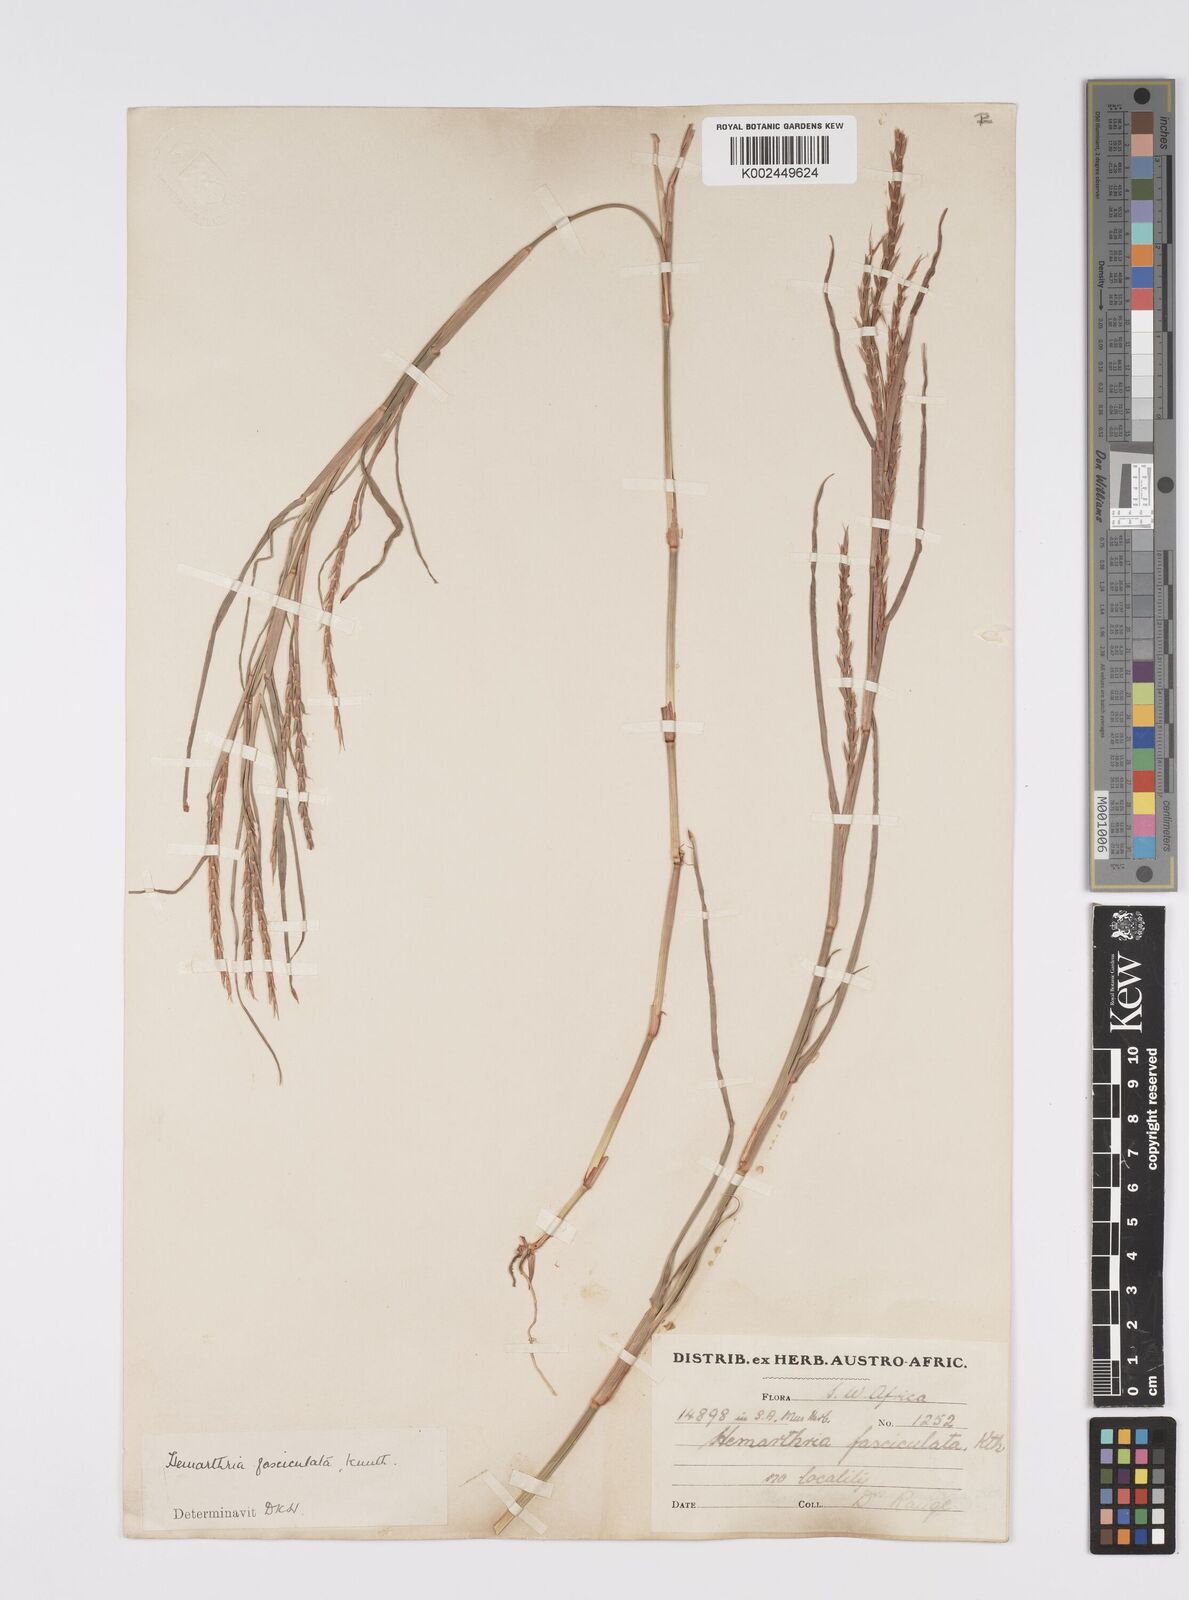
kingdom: Plantae
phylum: Tracheophyta
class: Liliopsida
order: Poales
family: Poaceae
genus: Hemarthria
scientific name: Hemarthria altissima
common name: African jointgrass
